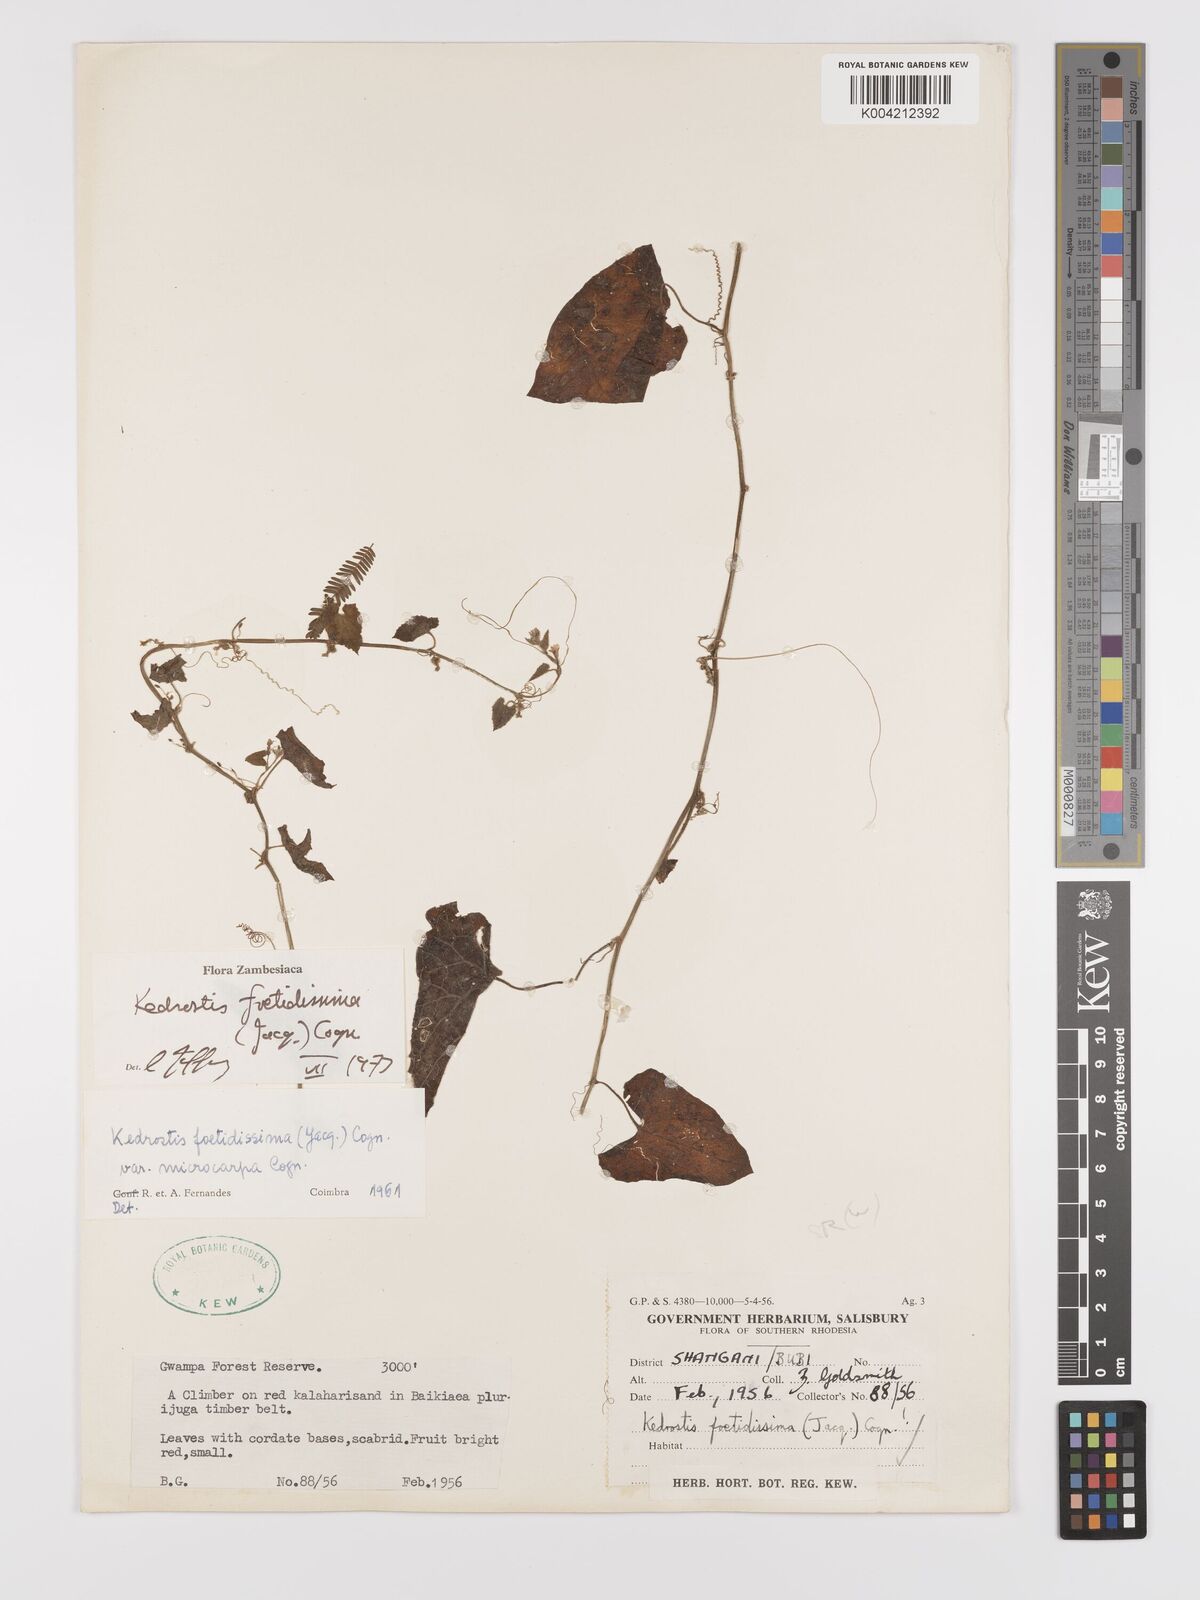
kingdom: Plantae
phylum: Tracheophyta
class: Magnoliopsida
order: Cucurbitales
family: Cucurbitaceae
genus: Kedrostis
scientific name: Kedrostis foetidissima
